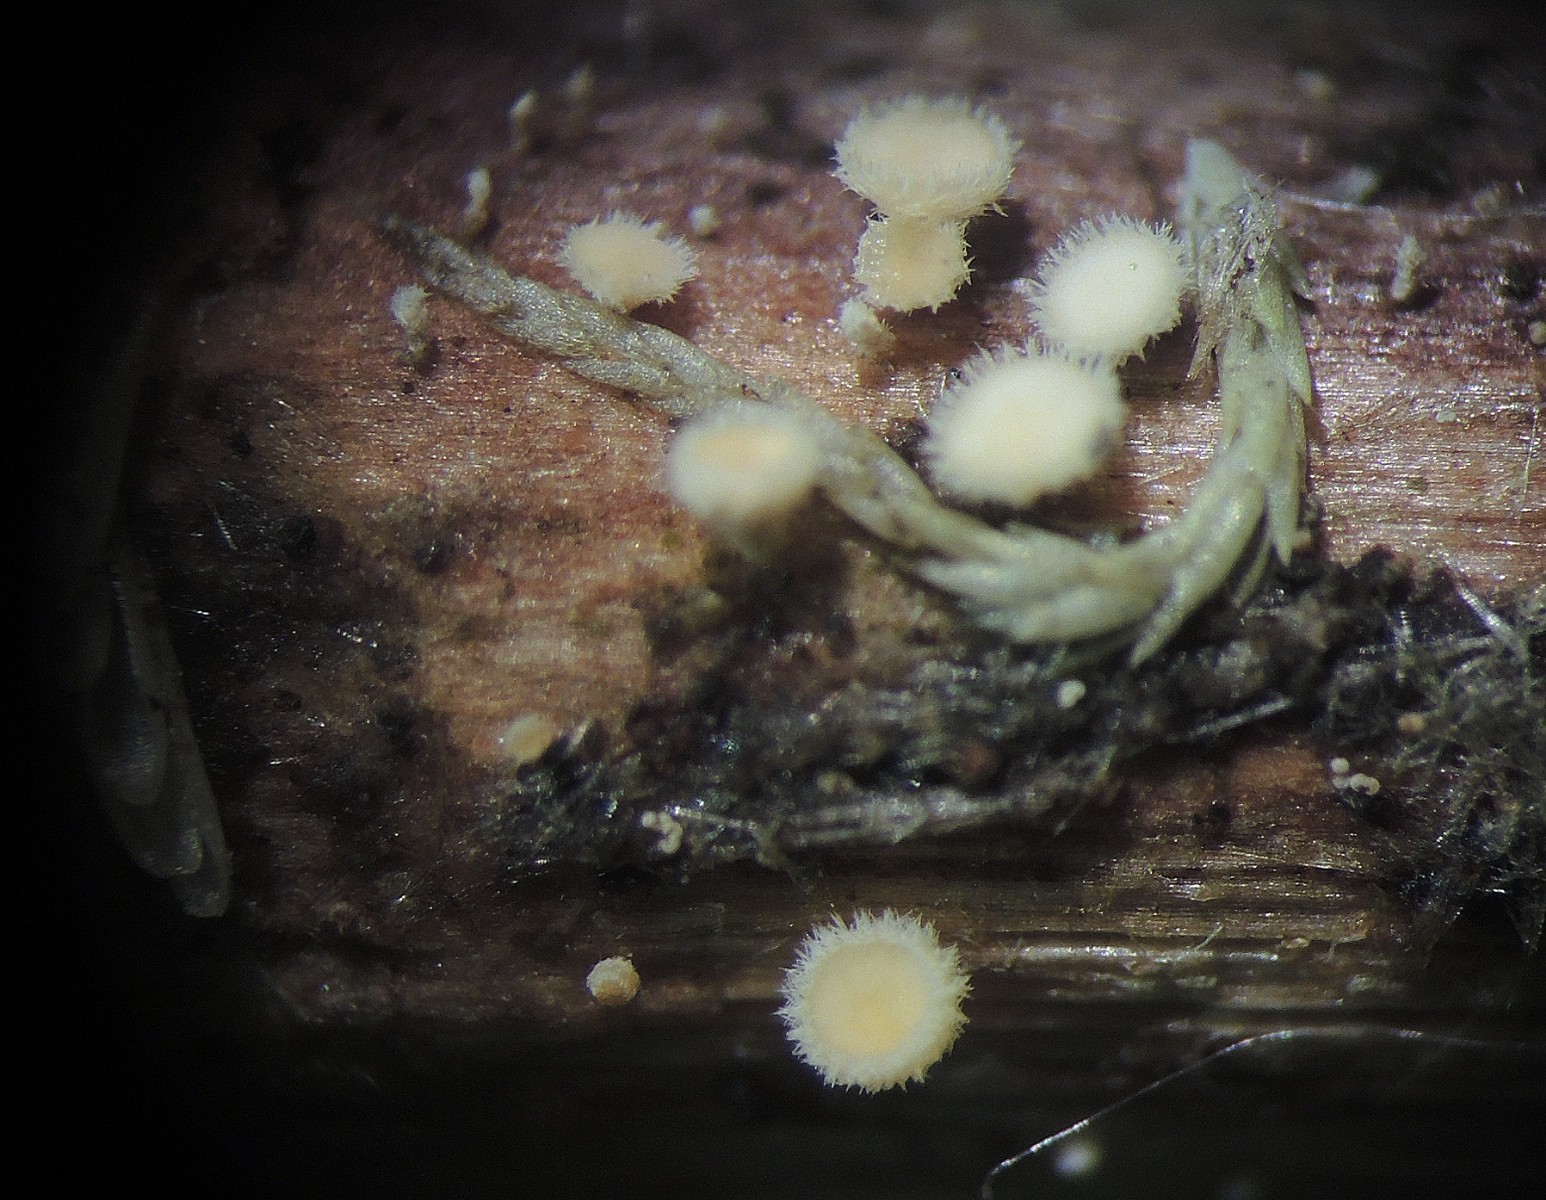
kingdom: Fungi
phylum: Ascomycota
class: Leotiomycetes
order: Helotiales
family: Lachnaceae
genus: Albotricha
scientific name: Albotricha acutipila
